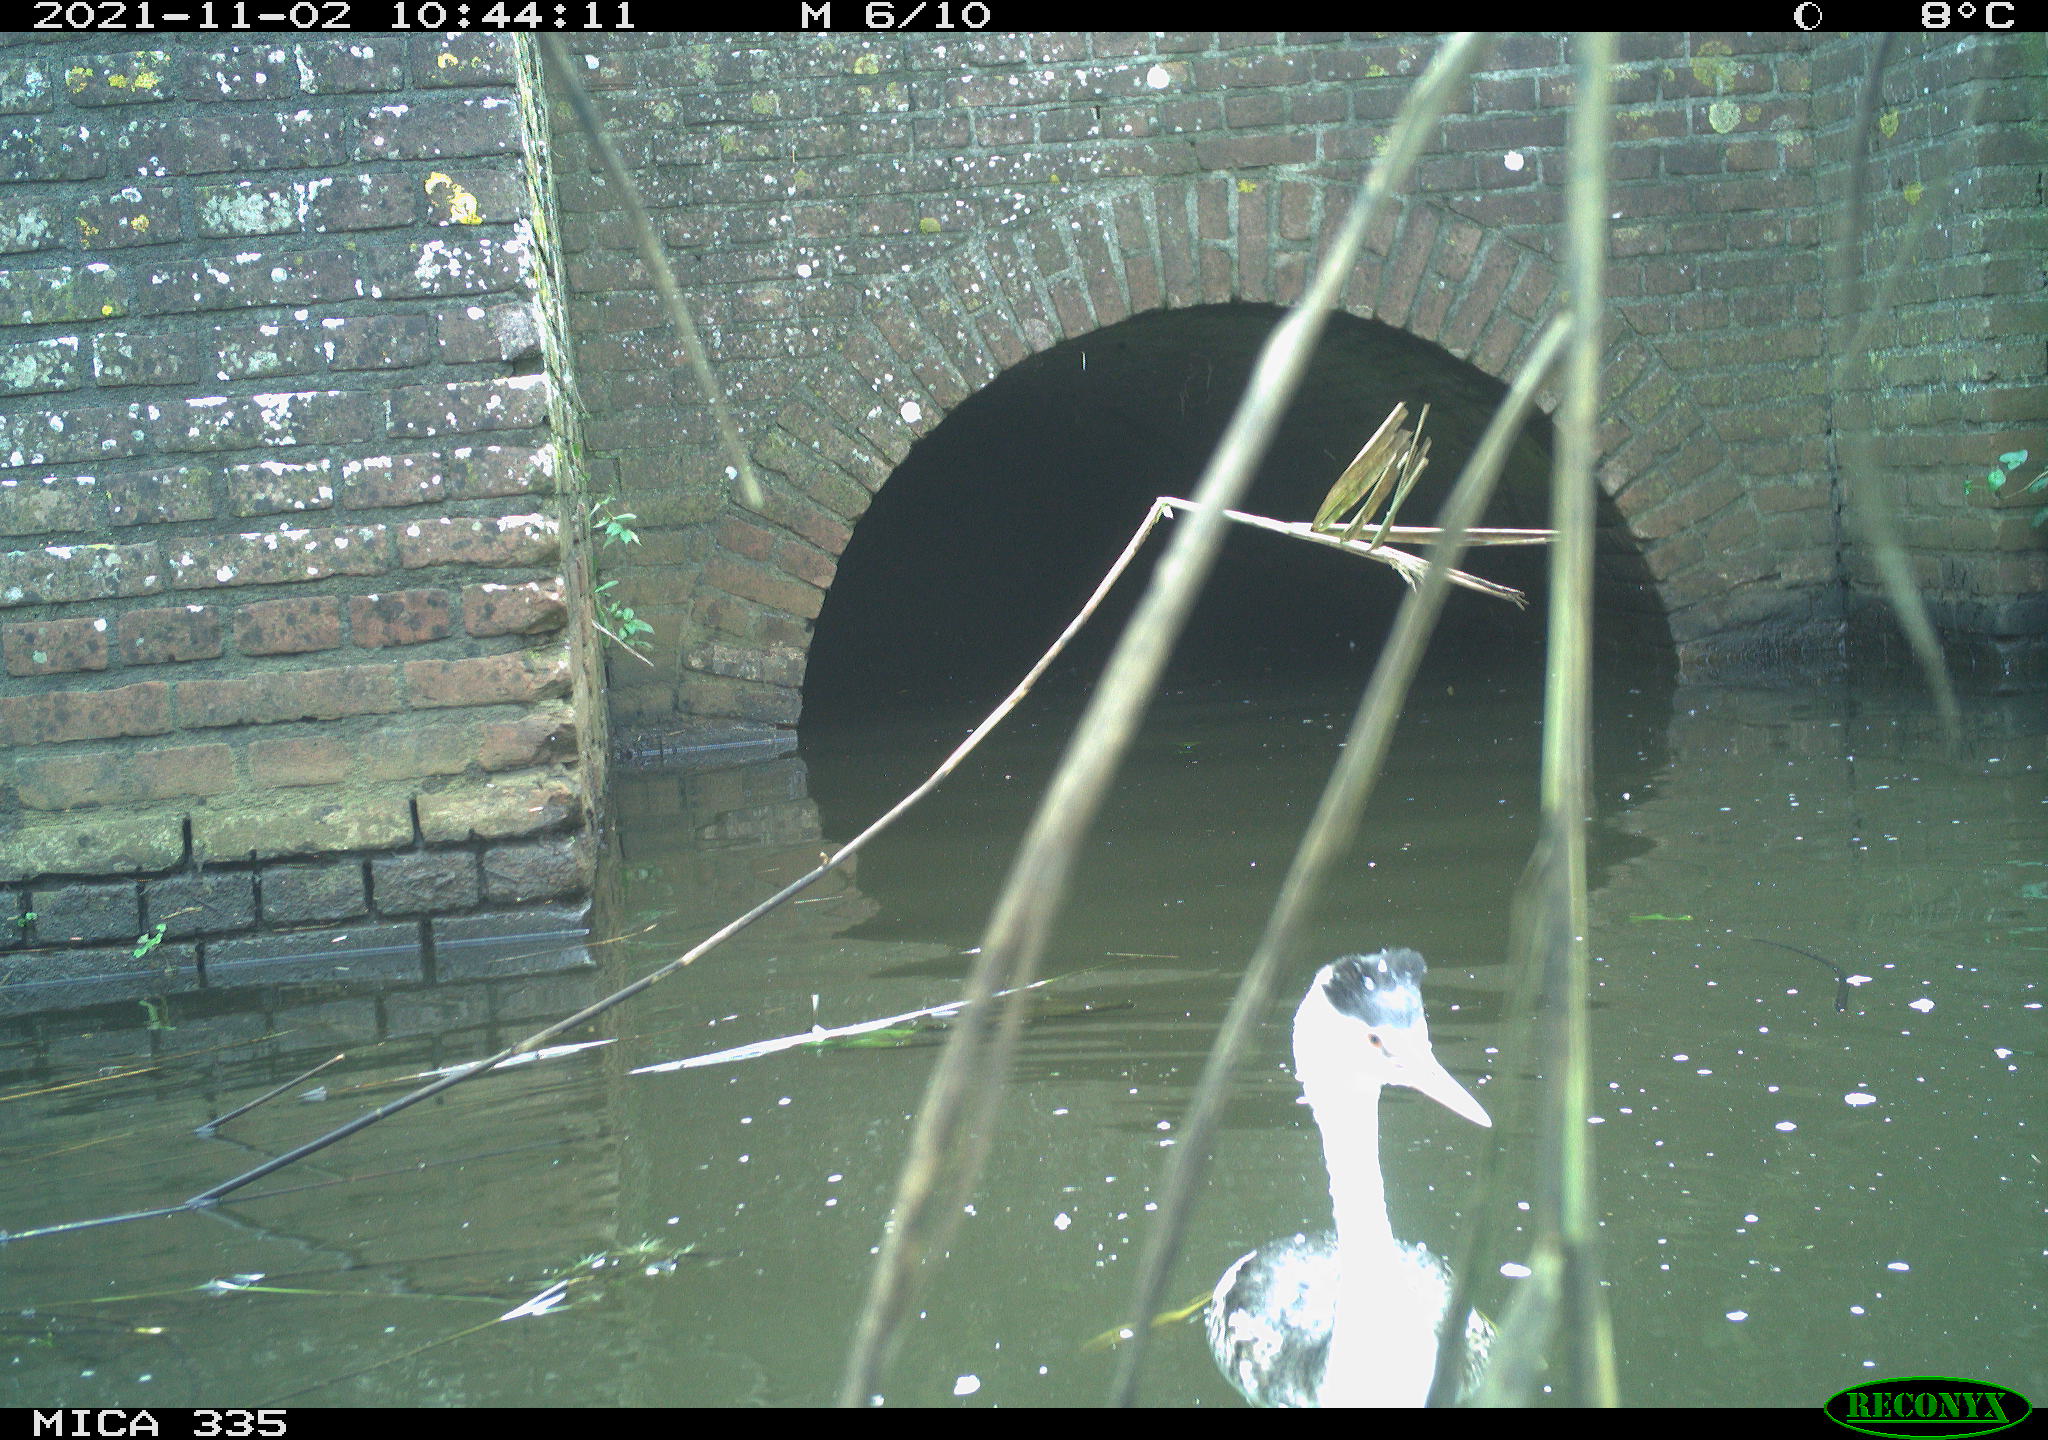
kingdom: Animalia
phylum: Chordata
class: Aves
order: Podicipediformes
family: Podicipedidae
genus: Podiceps
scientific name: Podiceps cristatus
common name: Great crested grebe
